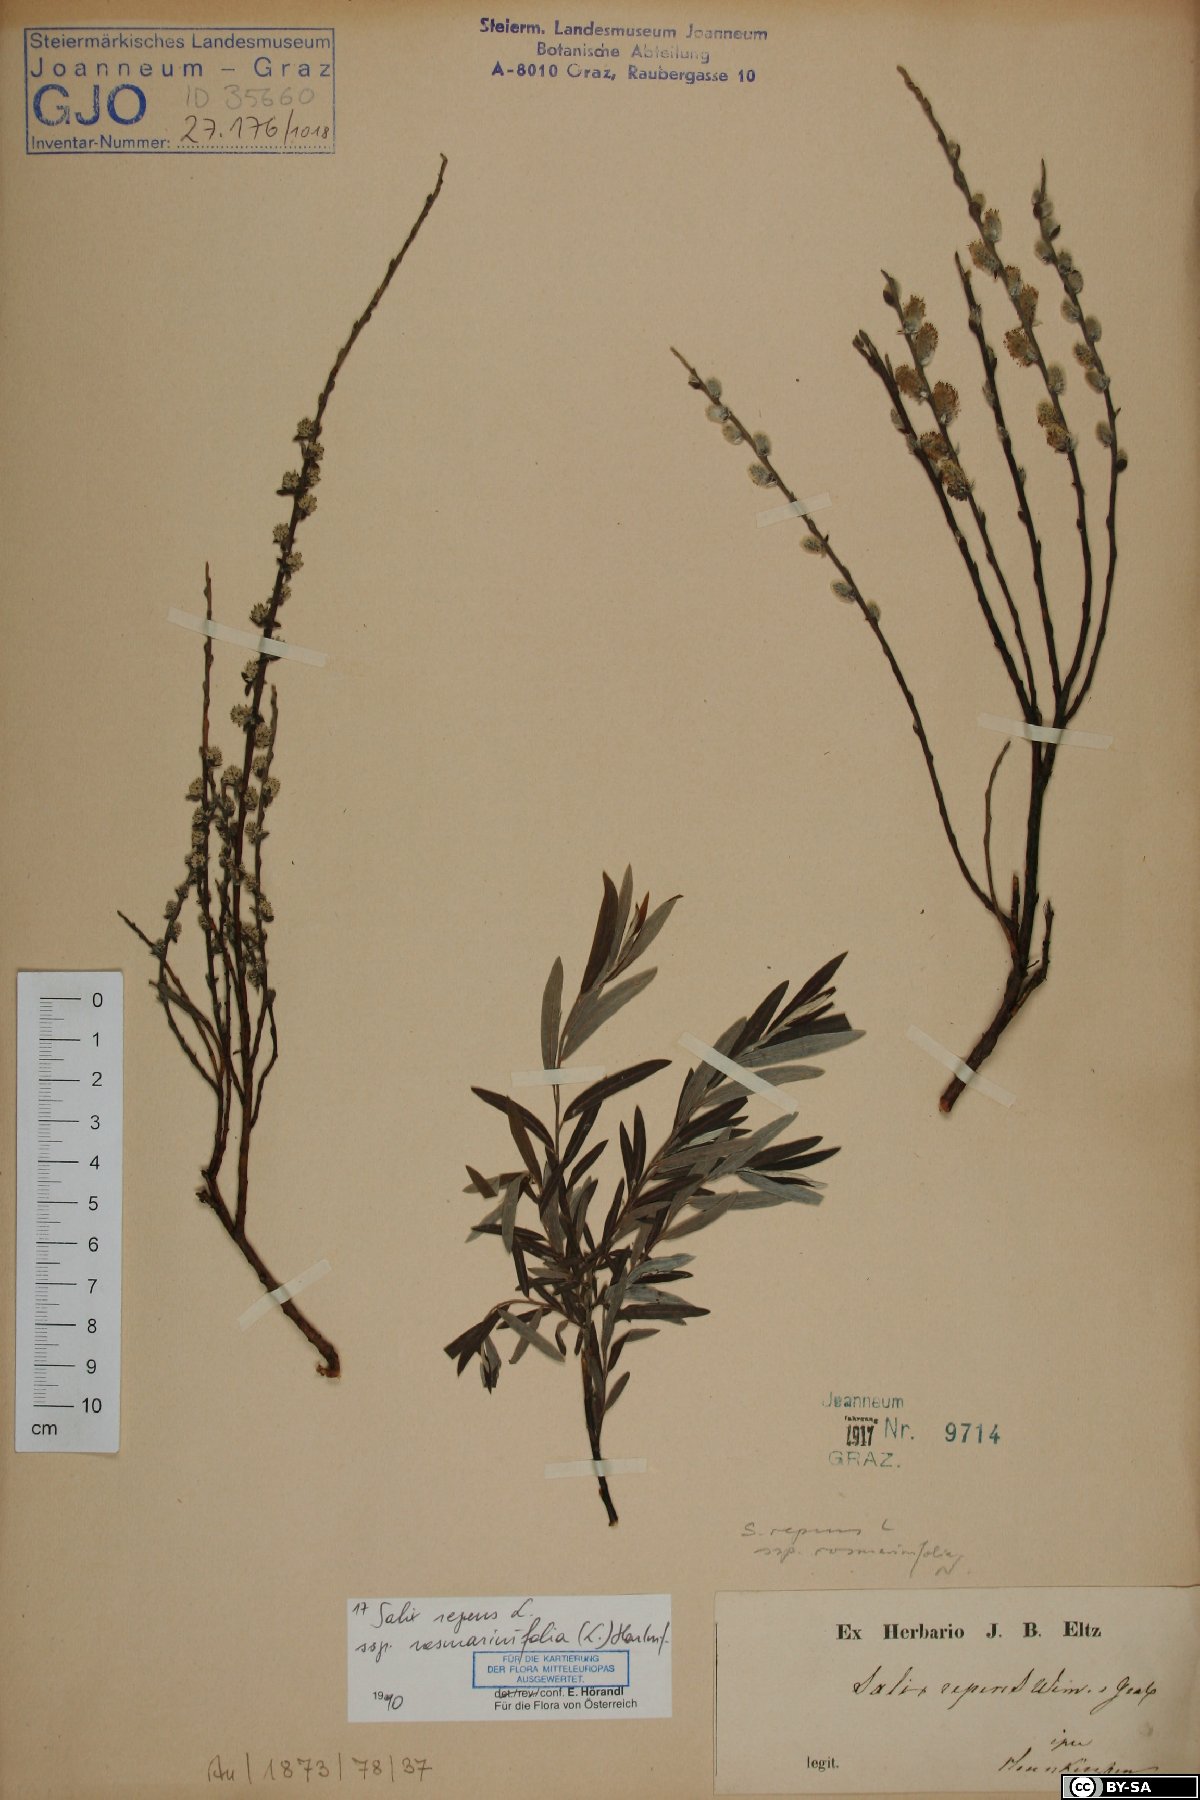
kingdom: Plantae
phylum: Tracheophyta
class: Magnoliopsida
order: Malpighiales
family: Salicaceae
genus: Salix
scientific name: Salix repens
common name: Creeping willow
